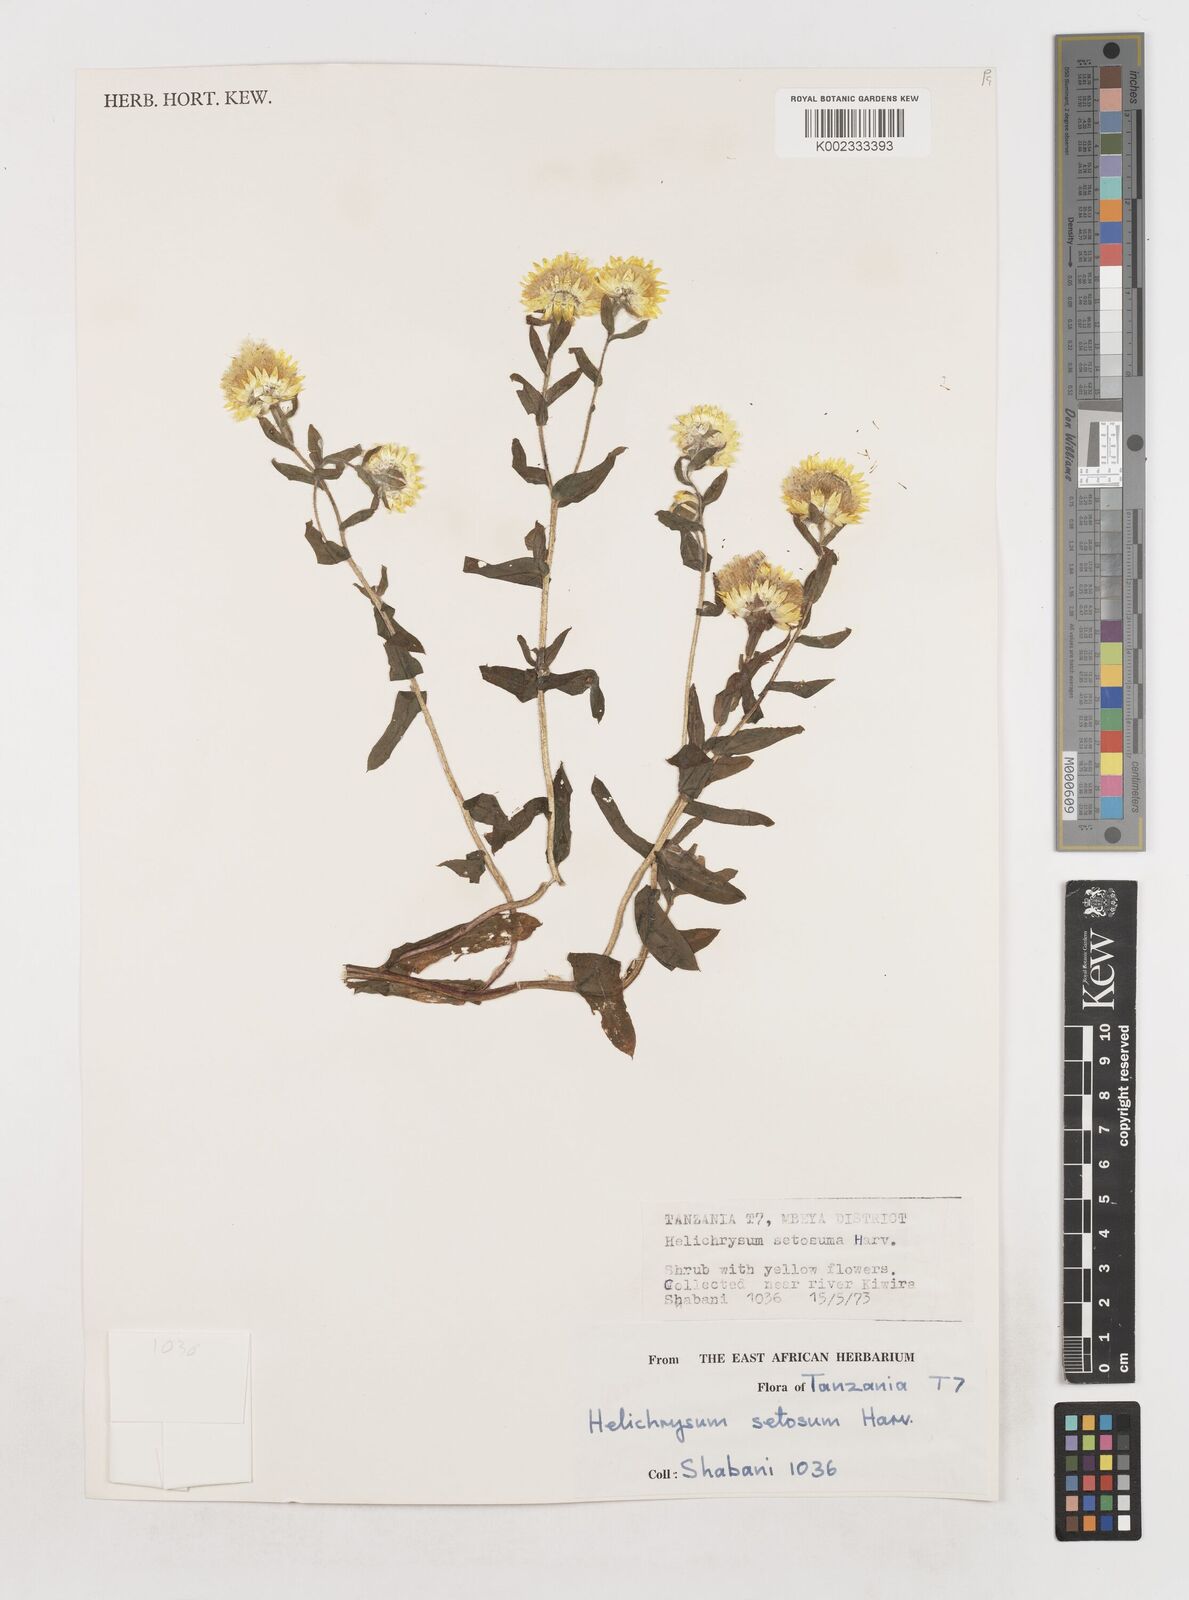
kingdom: Plantae
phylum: Tracheophyta
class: Magnoliopsida
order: Asterales
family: Asteraceae
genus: Helichrysum
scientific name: Helichrysum setosum
